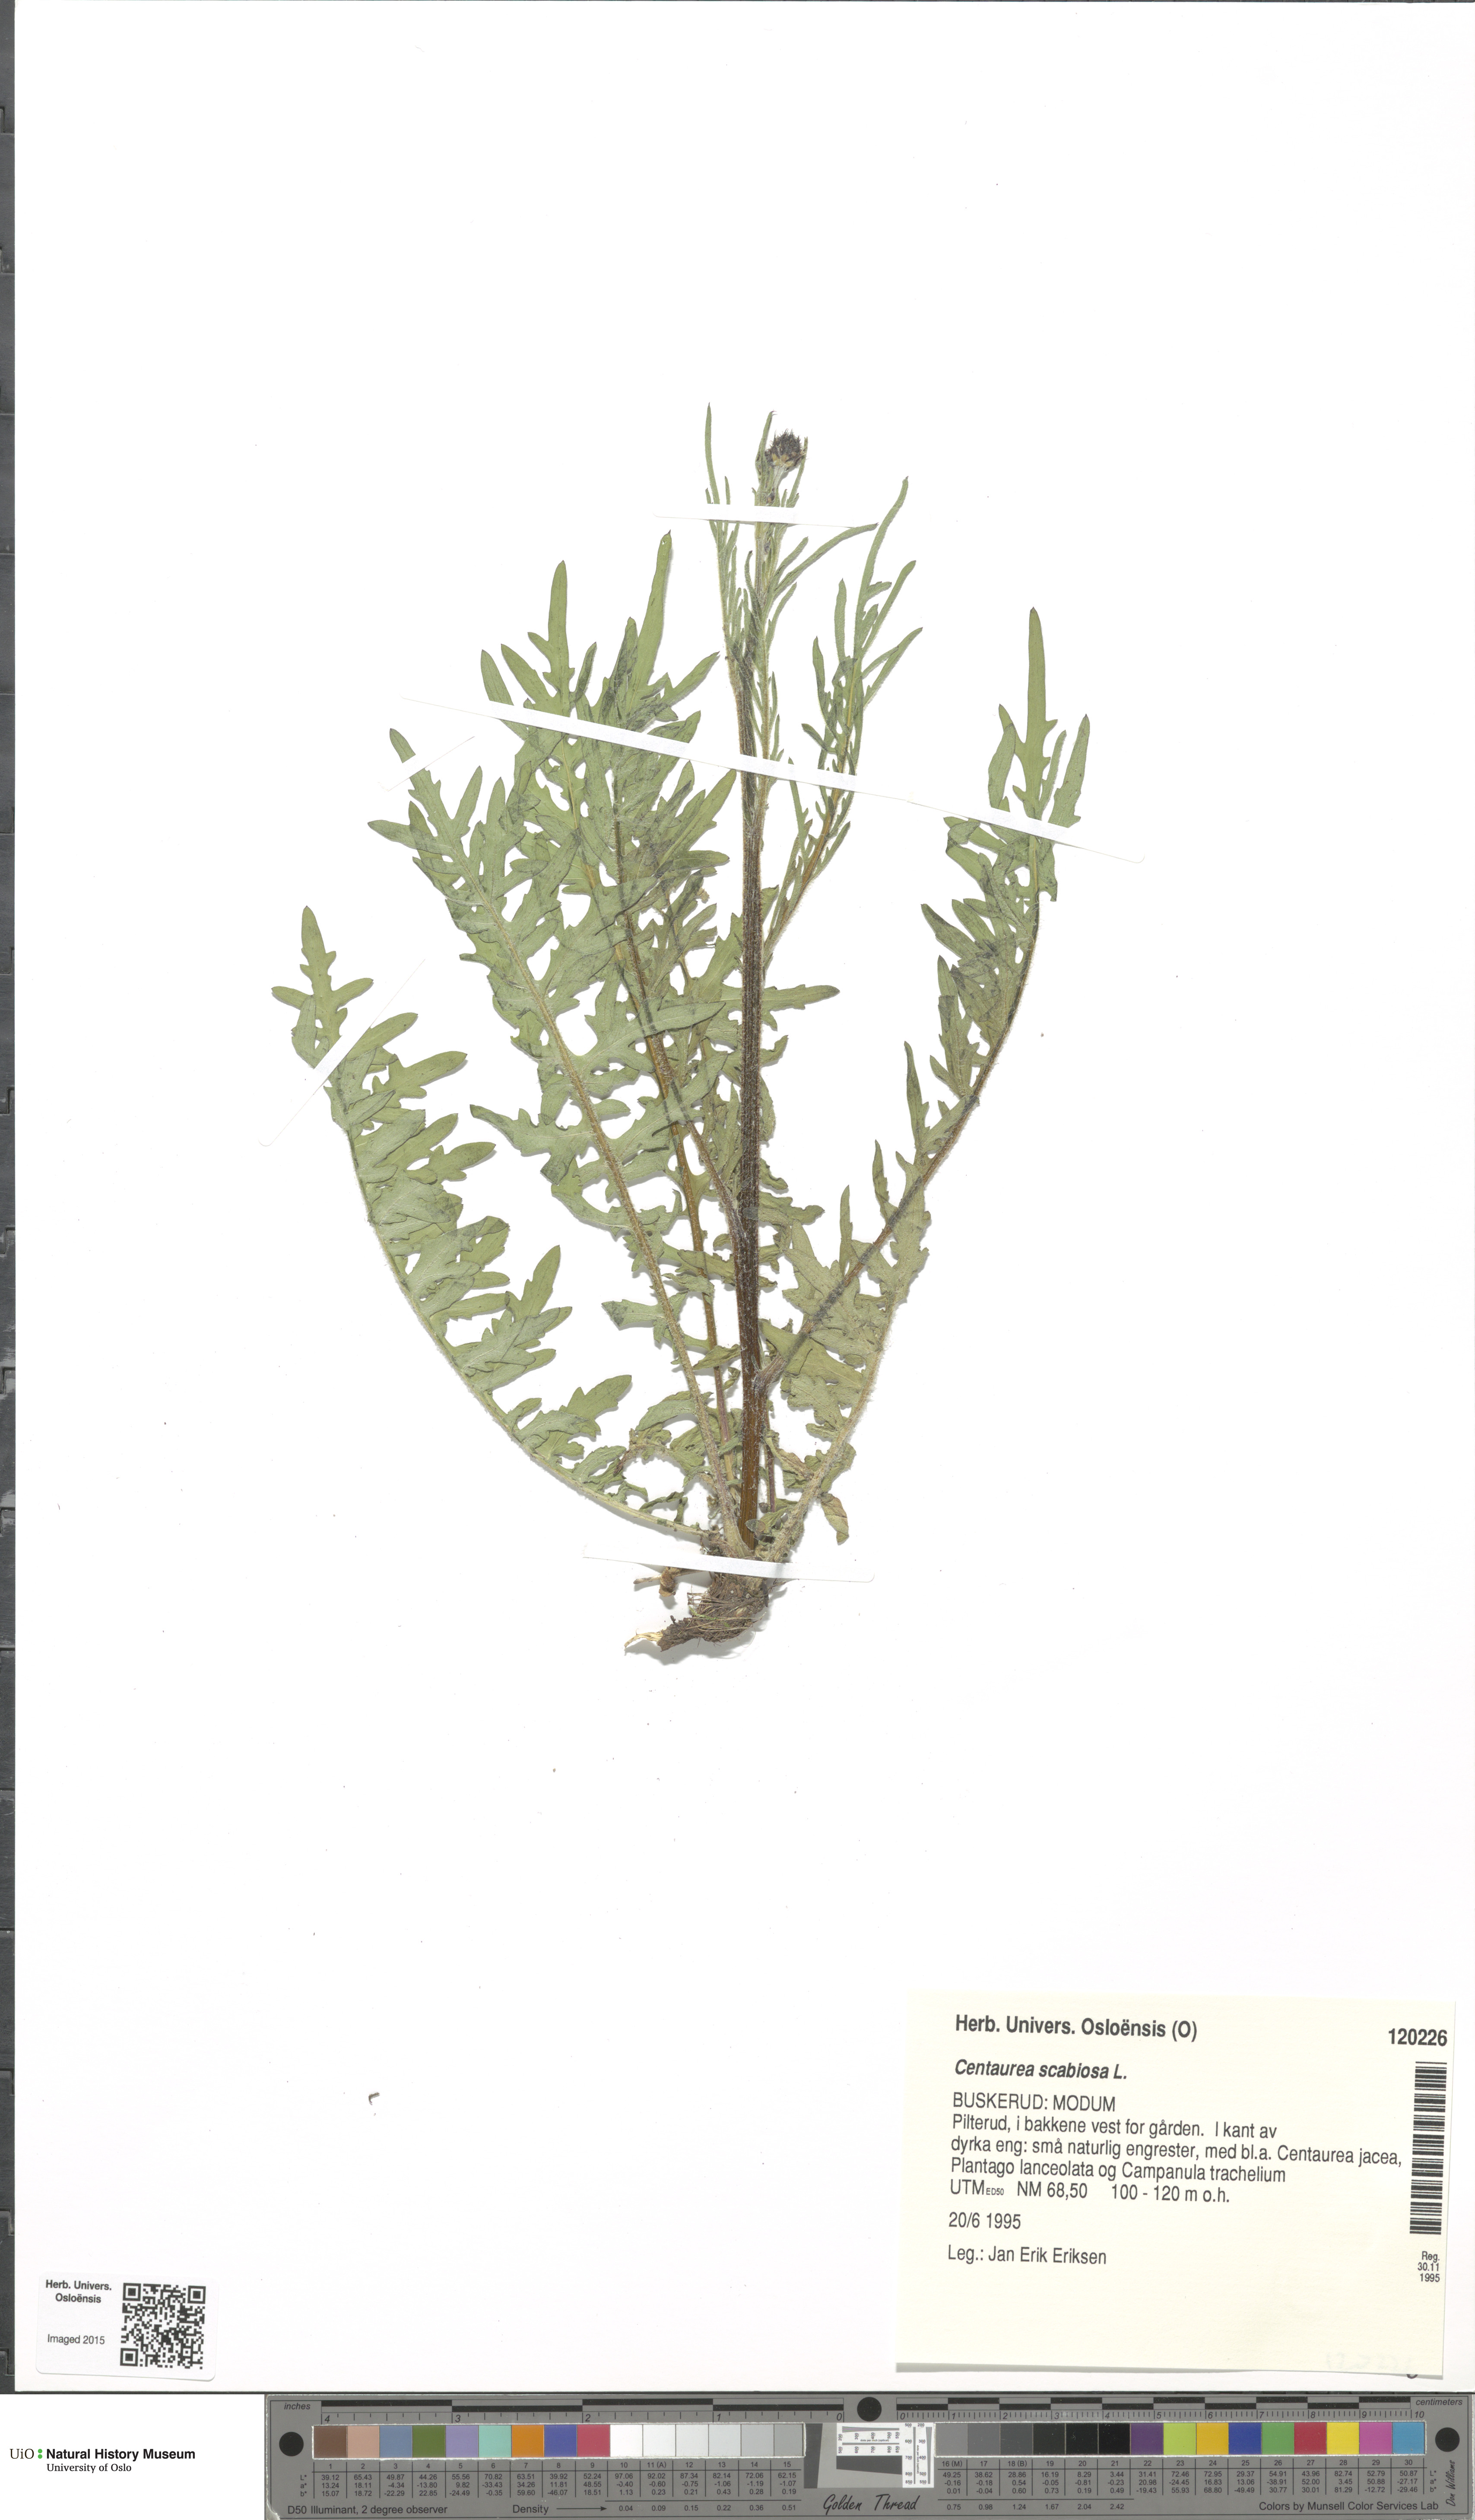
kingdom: Plantae
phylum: Tracheophyta
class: Magnoliopsida
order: Asterales
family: Asteraceae
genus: Centaurea
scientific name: Centaurea scabiosa
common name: Greater knapweed
